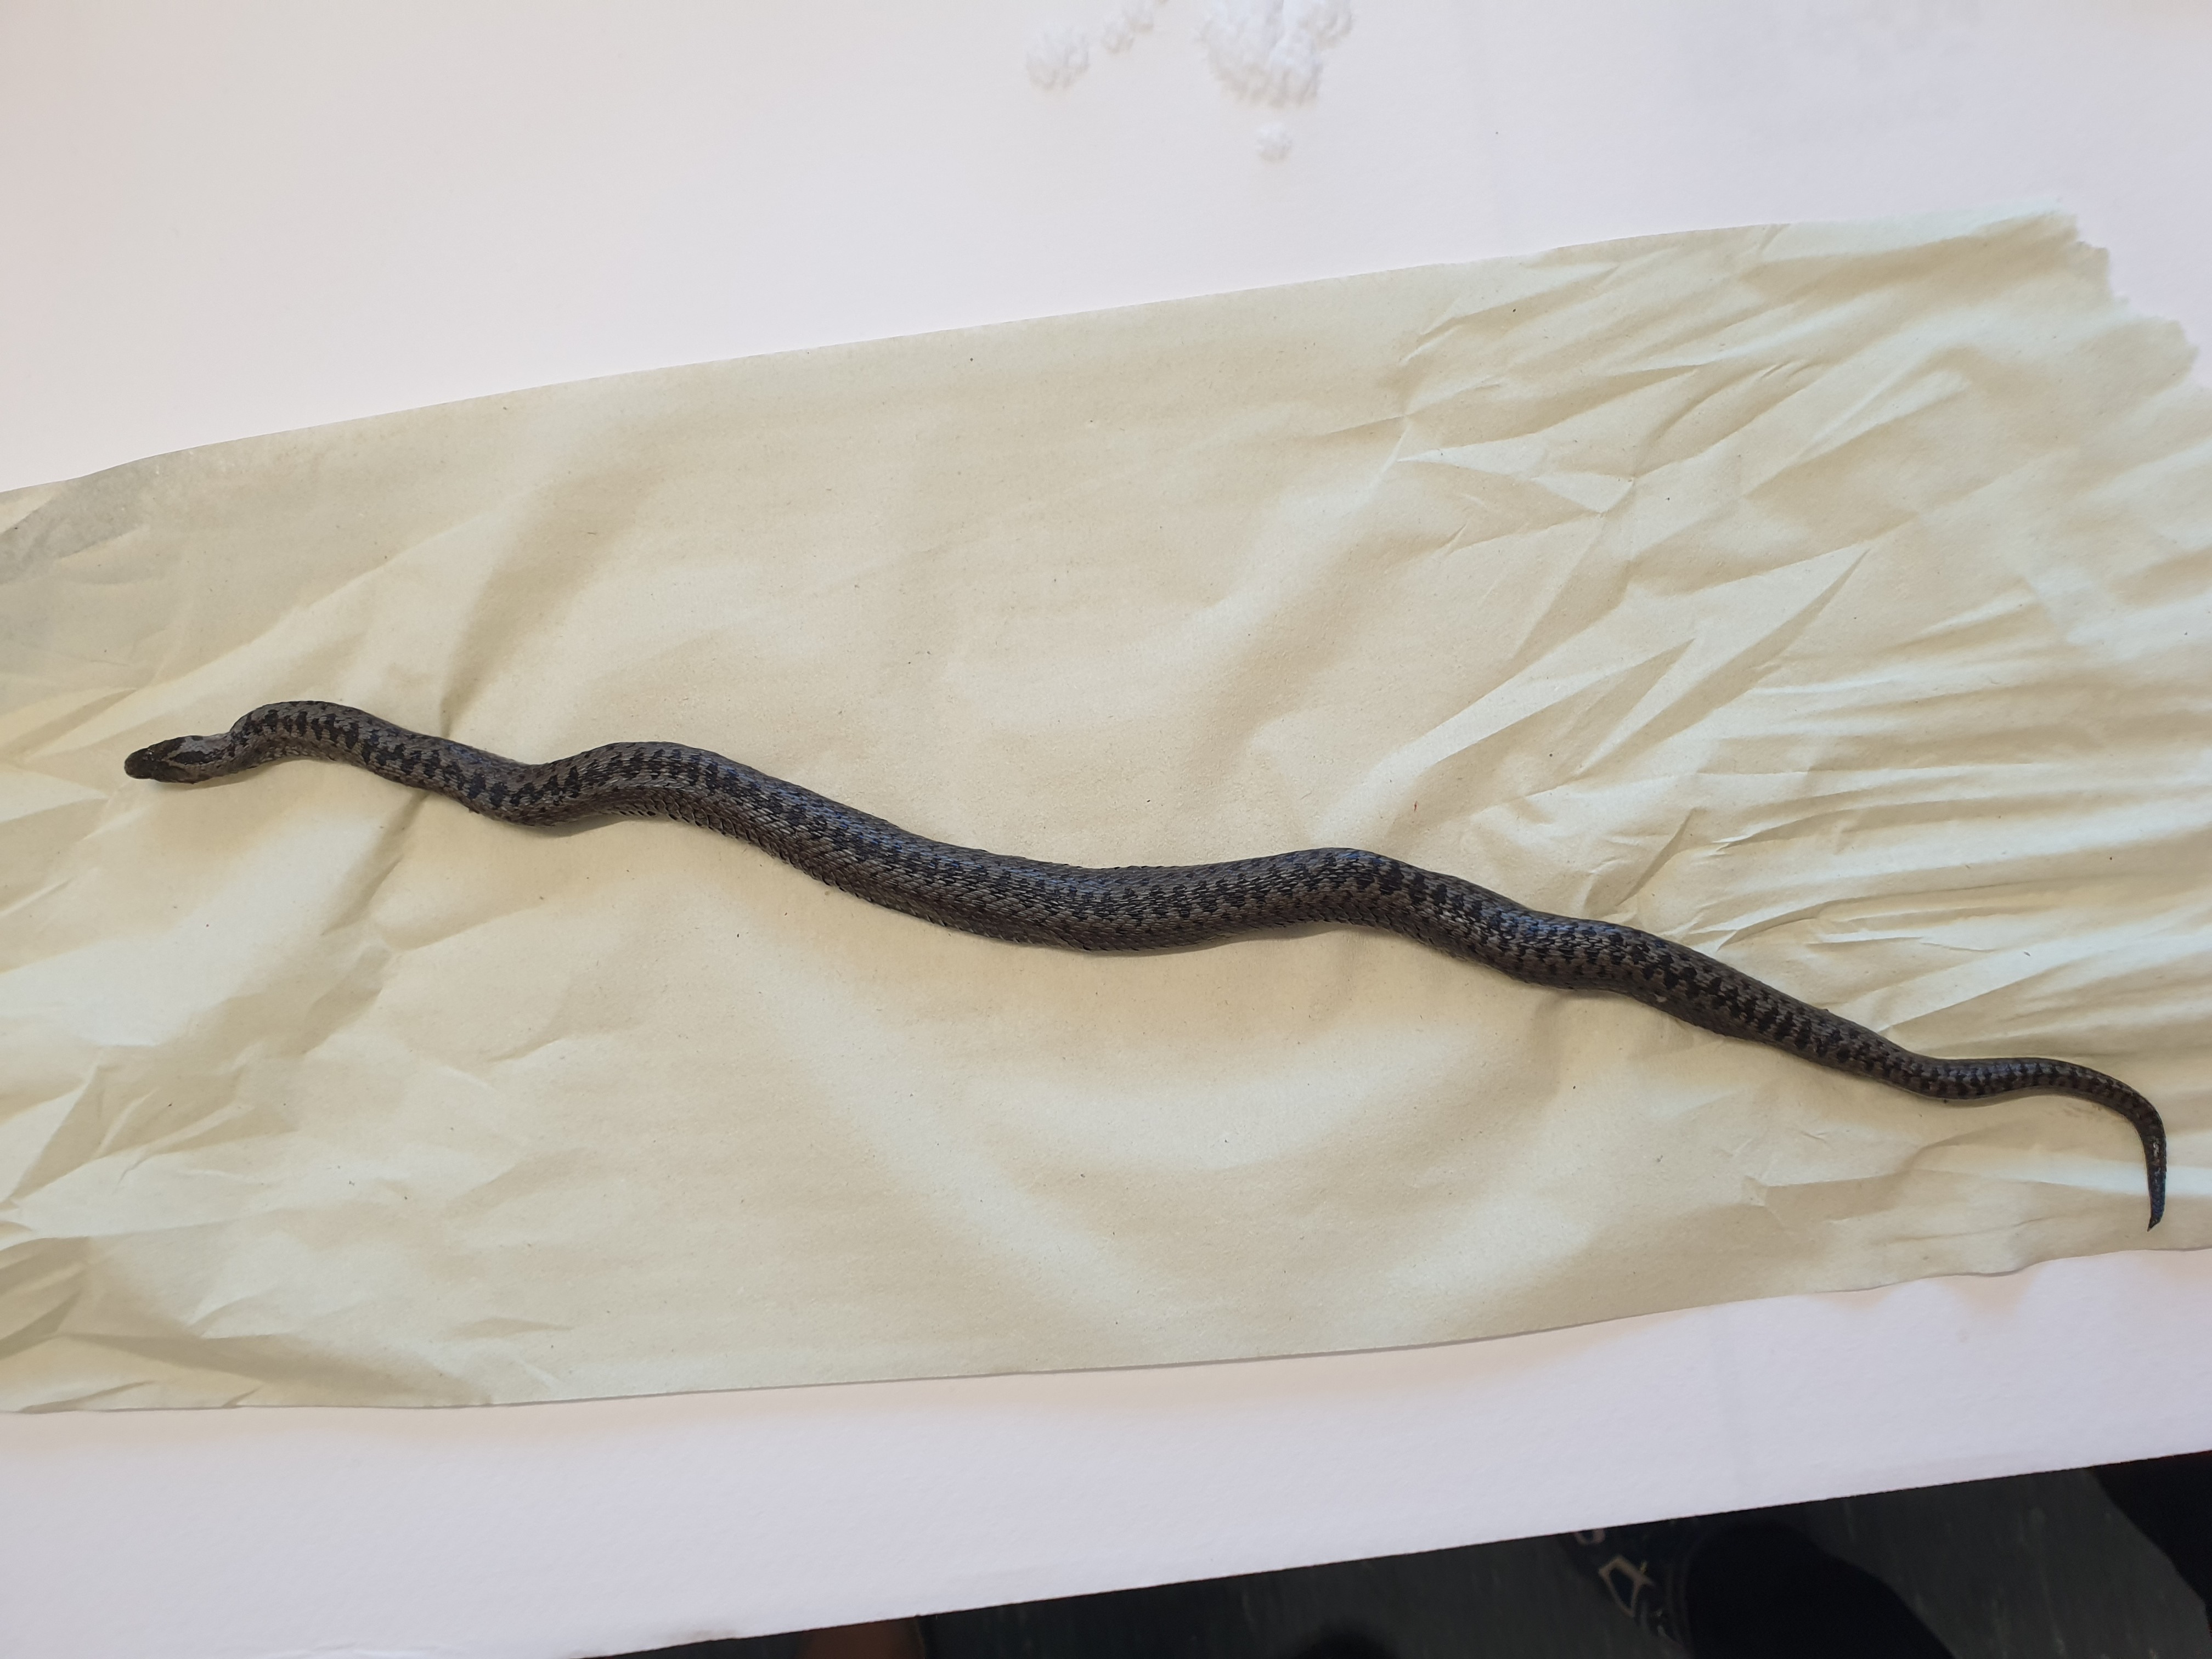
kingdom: Animalia
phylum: Chordata
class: Squamata
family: Viperidae
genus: Vipera
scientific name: Vipera berus
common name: Adder
